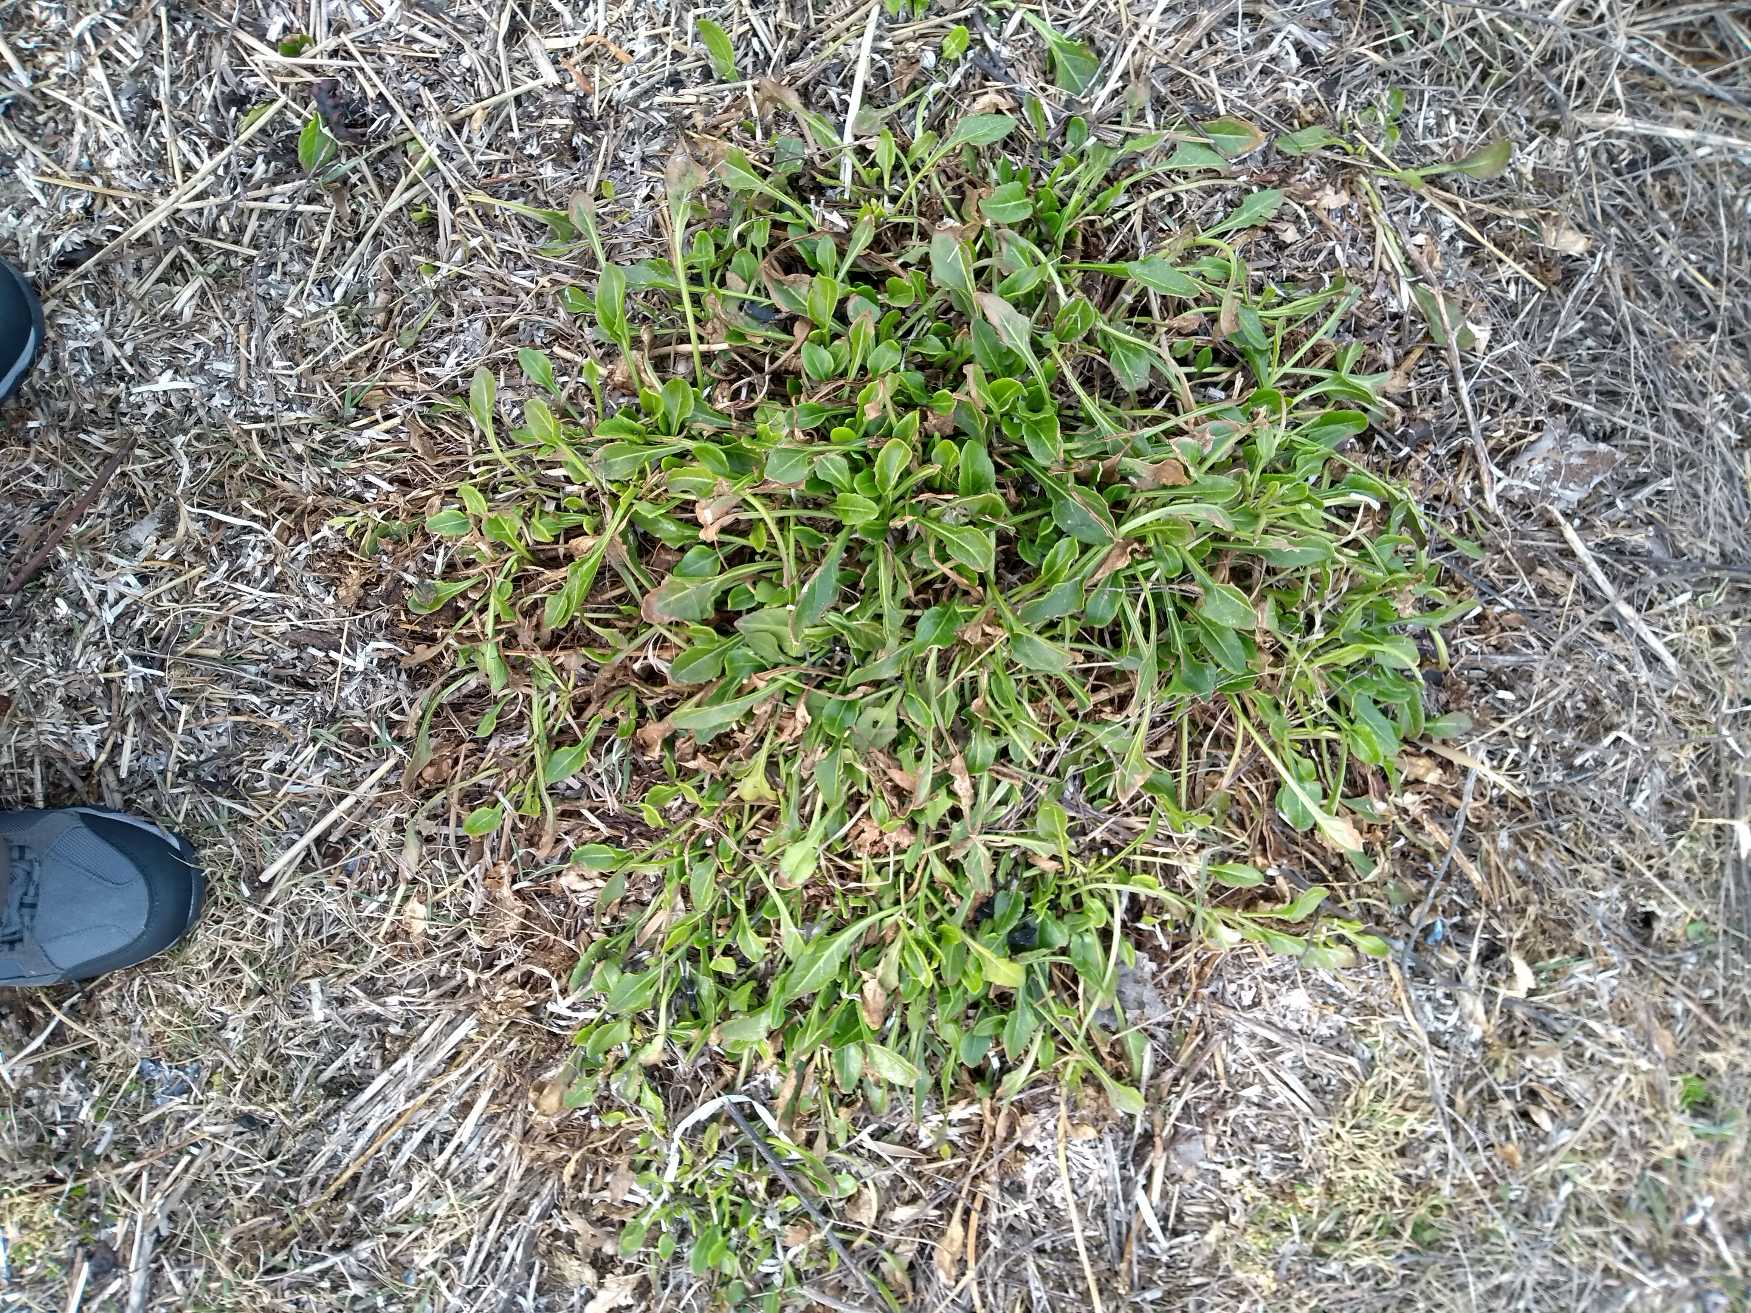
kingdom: Plantae
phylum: Tracheophyta
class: Magnoliopsida
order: Caryophyllales
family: Amaranthaceae
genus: Beta
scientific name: Beta maritima
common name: Strand-bede
